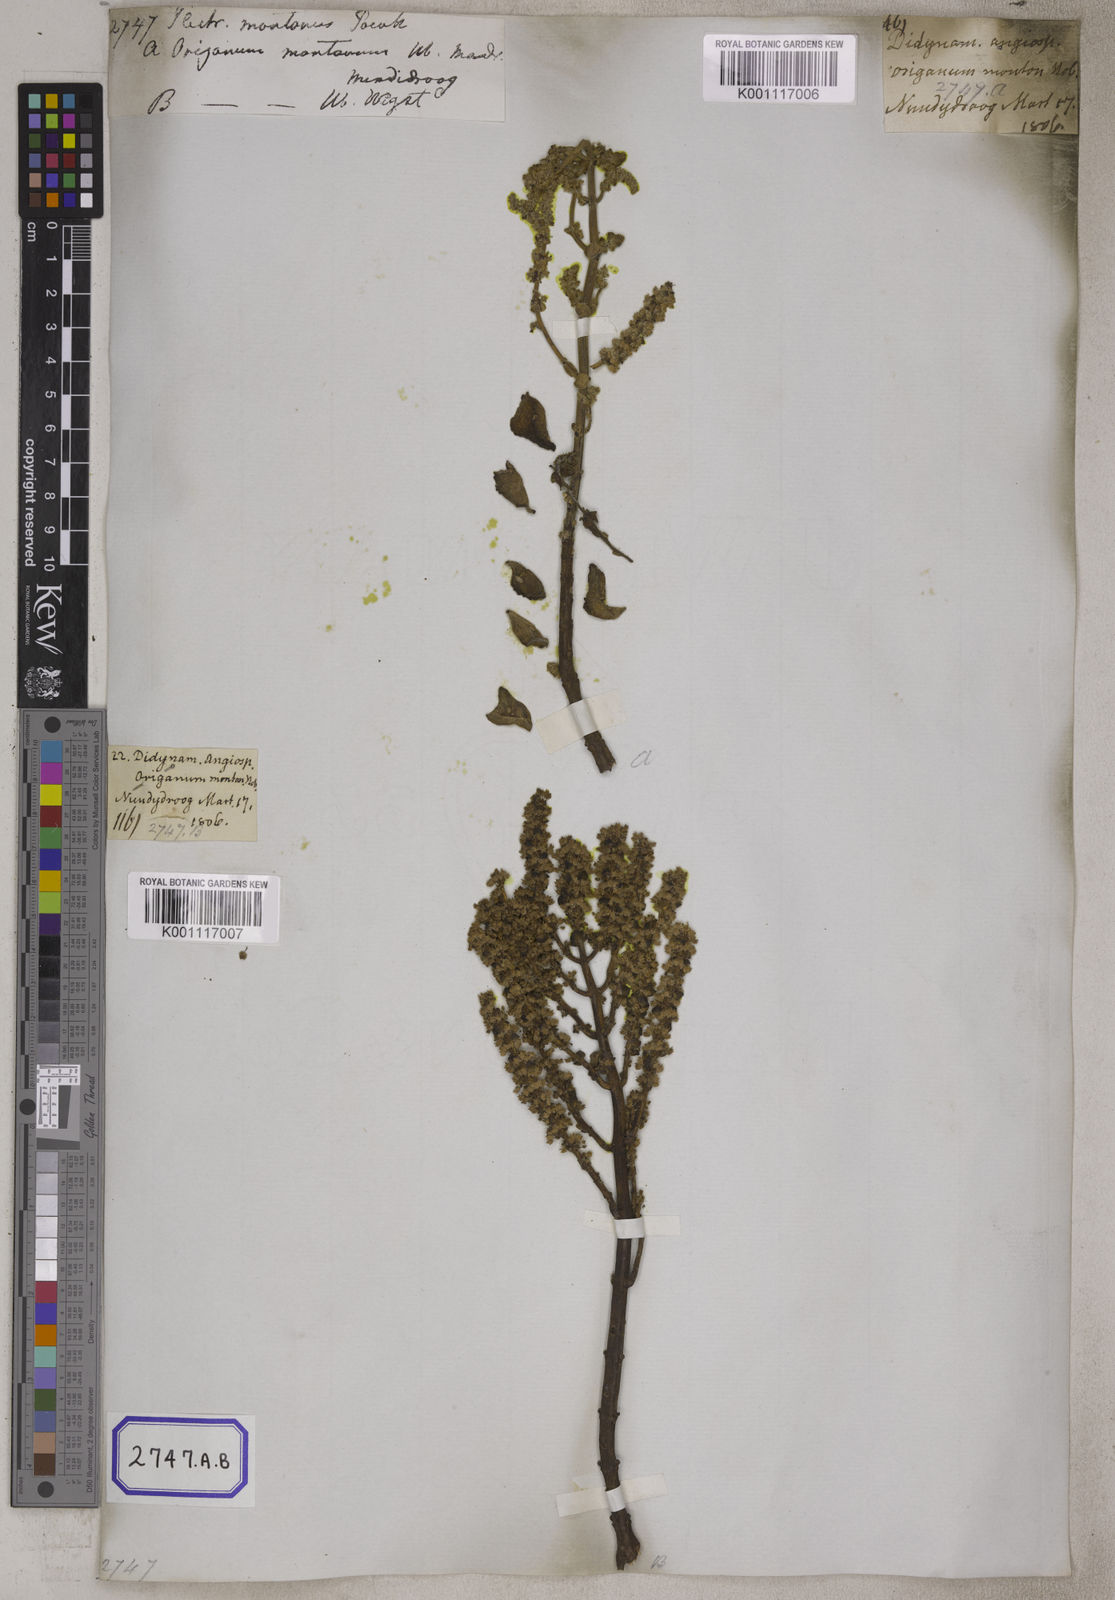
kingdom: Plantae
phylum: Tracheophyta
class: Magnoliopsida
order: Lamiales
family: Lamiaceae
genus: Coleus
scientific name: Coleus cylindraceus
